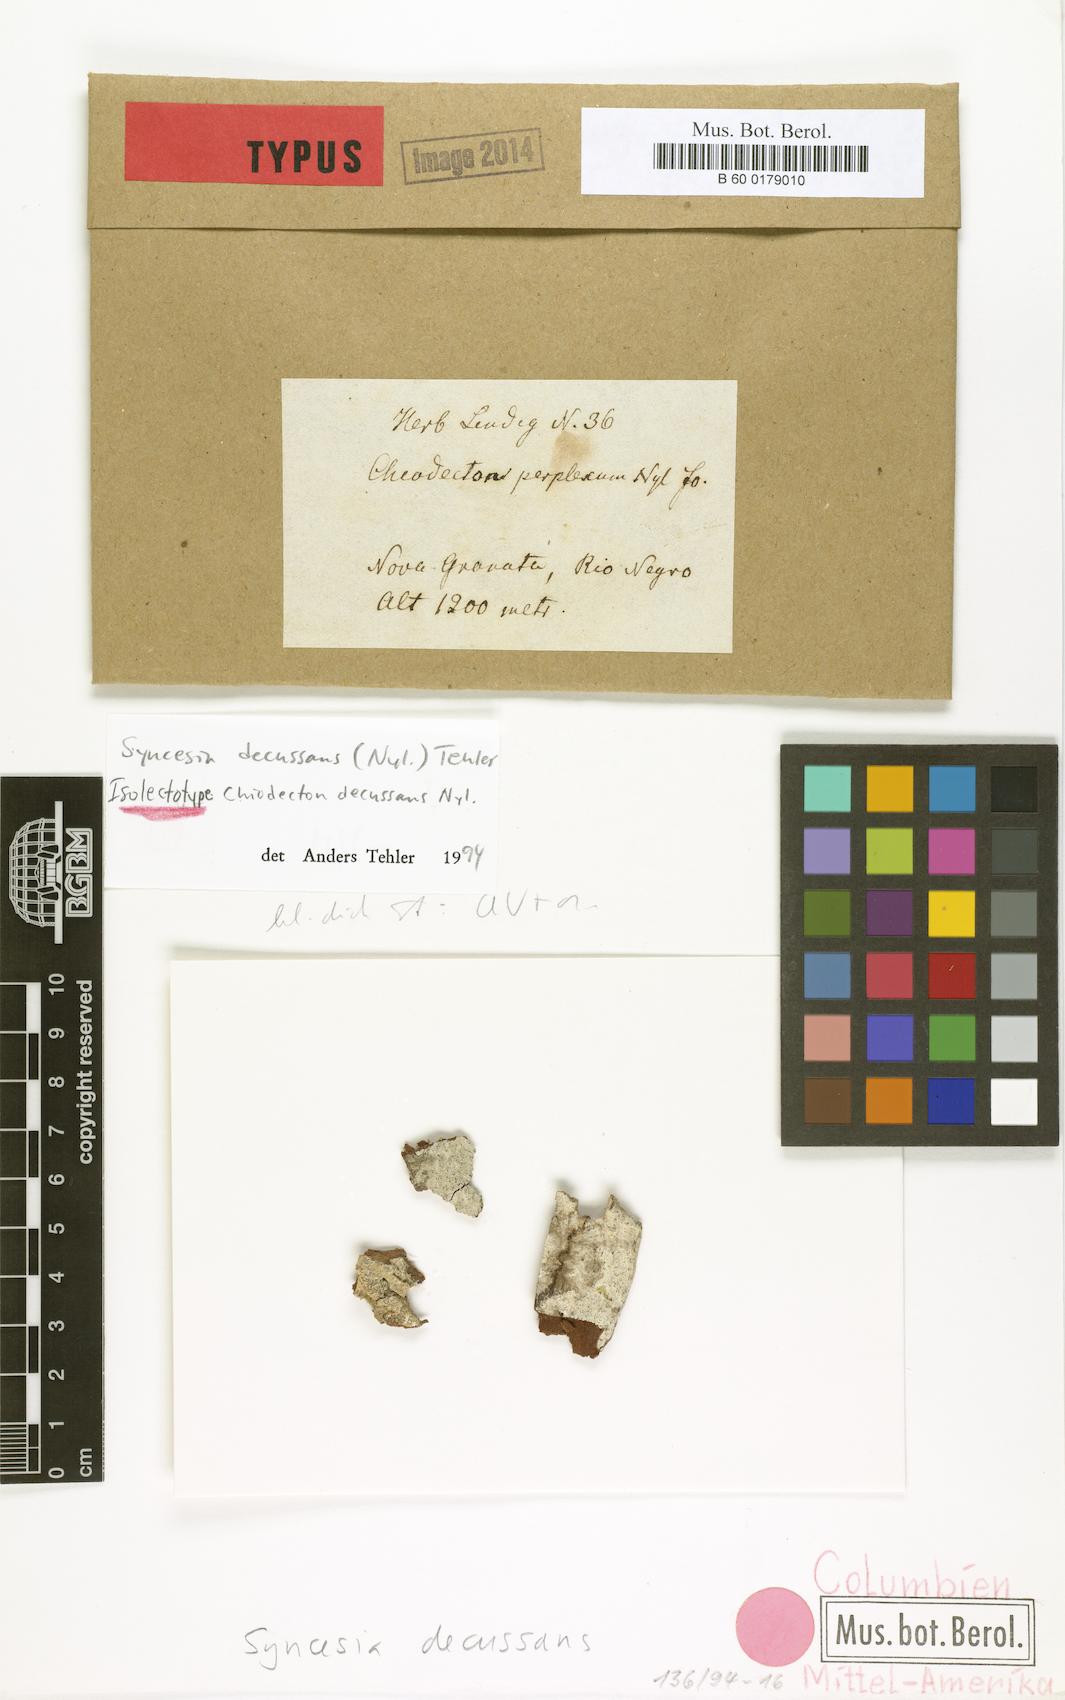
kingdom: Fungi
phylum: Ascomycota
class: Arthoniomycetes
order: Arthoniales
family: Roccellaceae
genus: Syncesia
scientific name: Syncesia decussans
